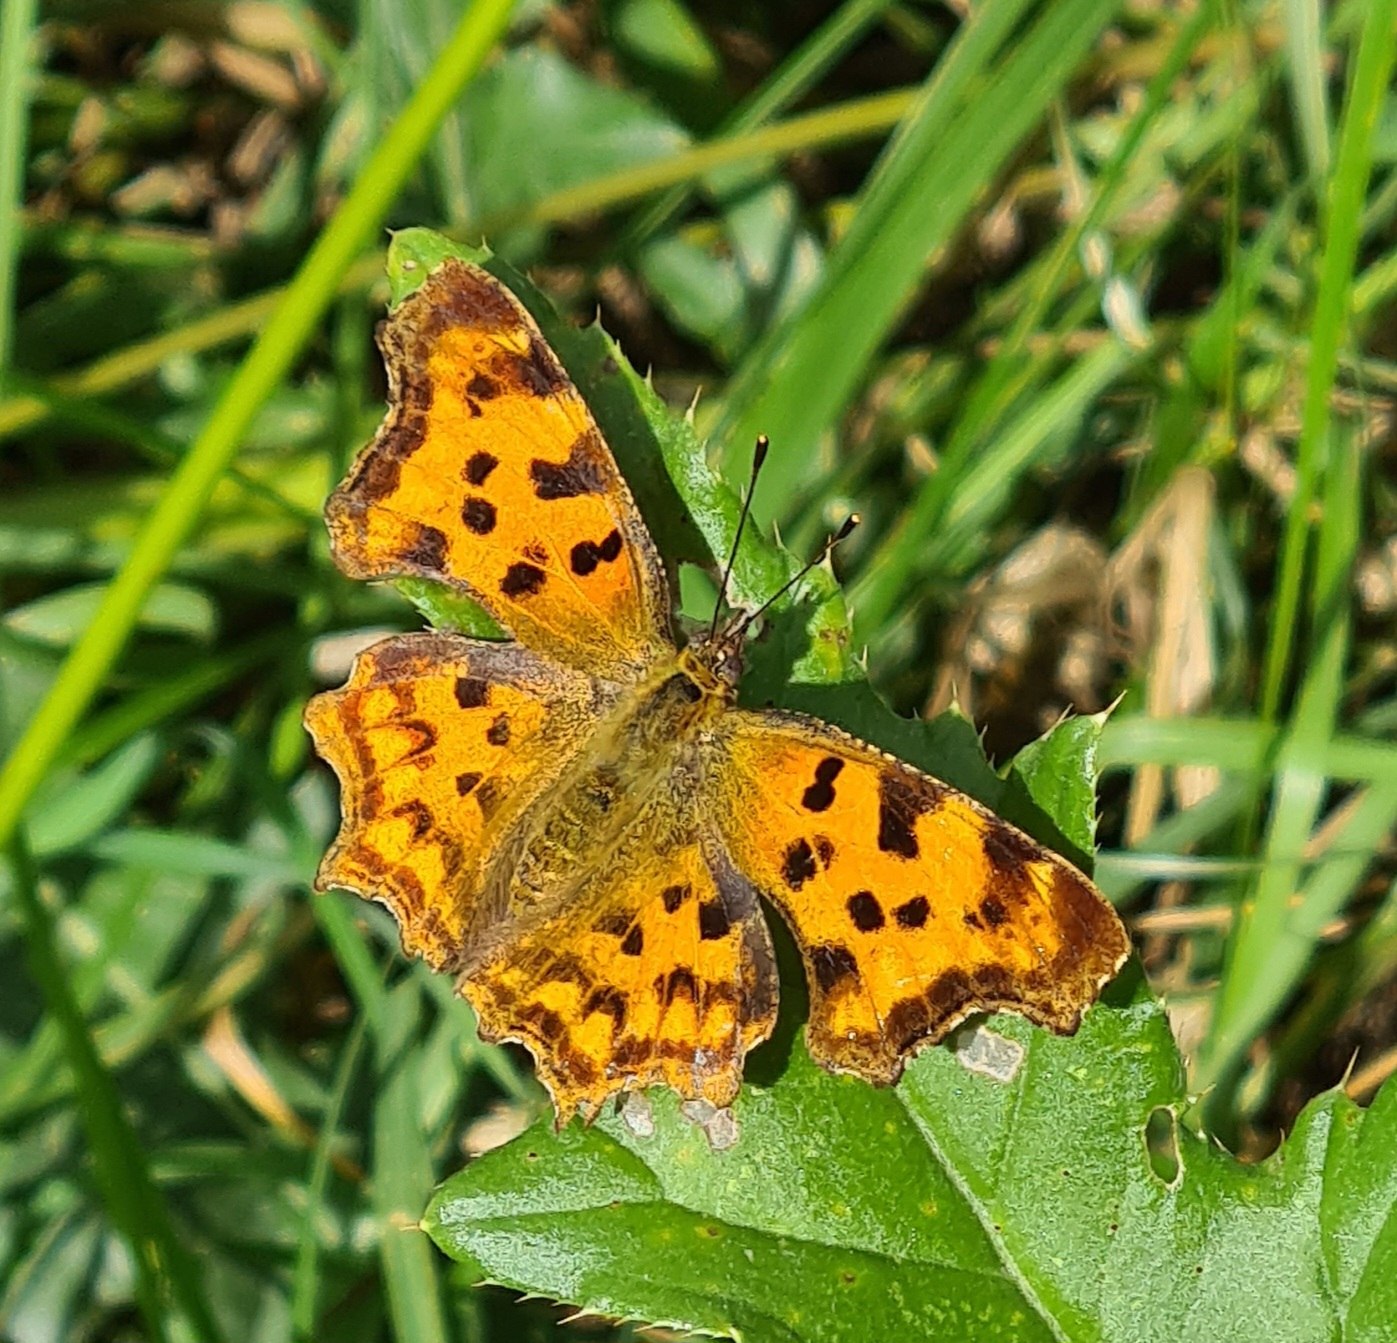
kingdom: Animalia
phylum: Arthropoda
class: Insecta
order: Lepidoptera
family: Nymphalidae
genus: Polygonia
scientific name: Polygonia c-album
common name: Det hvide C
